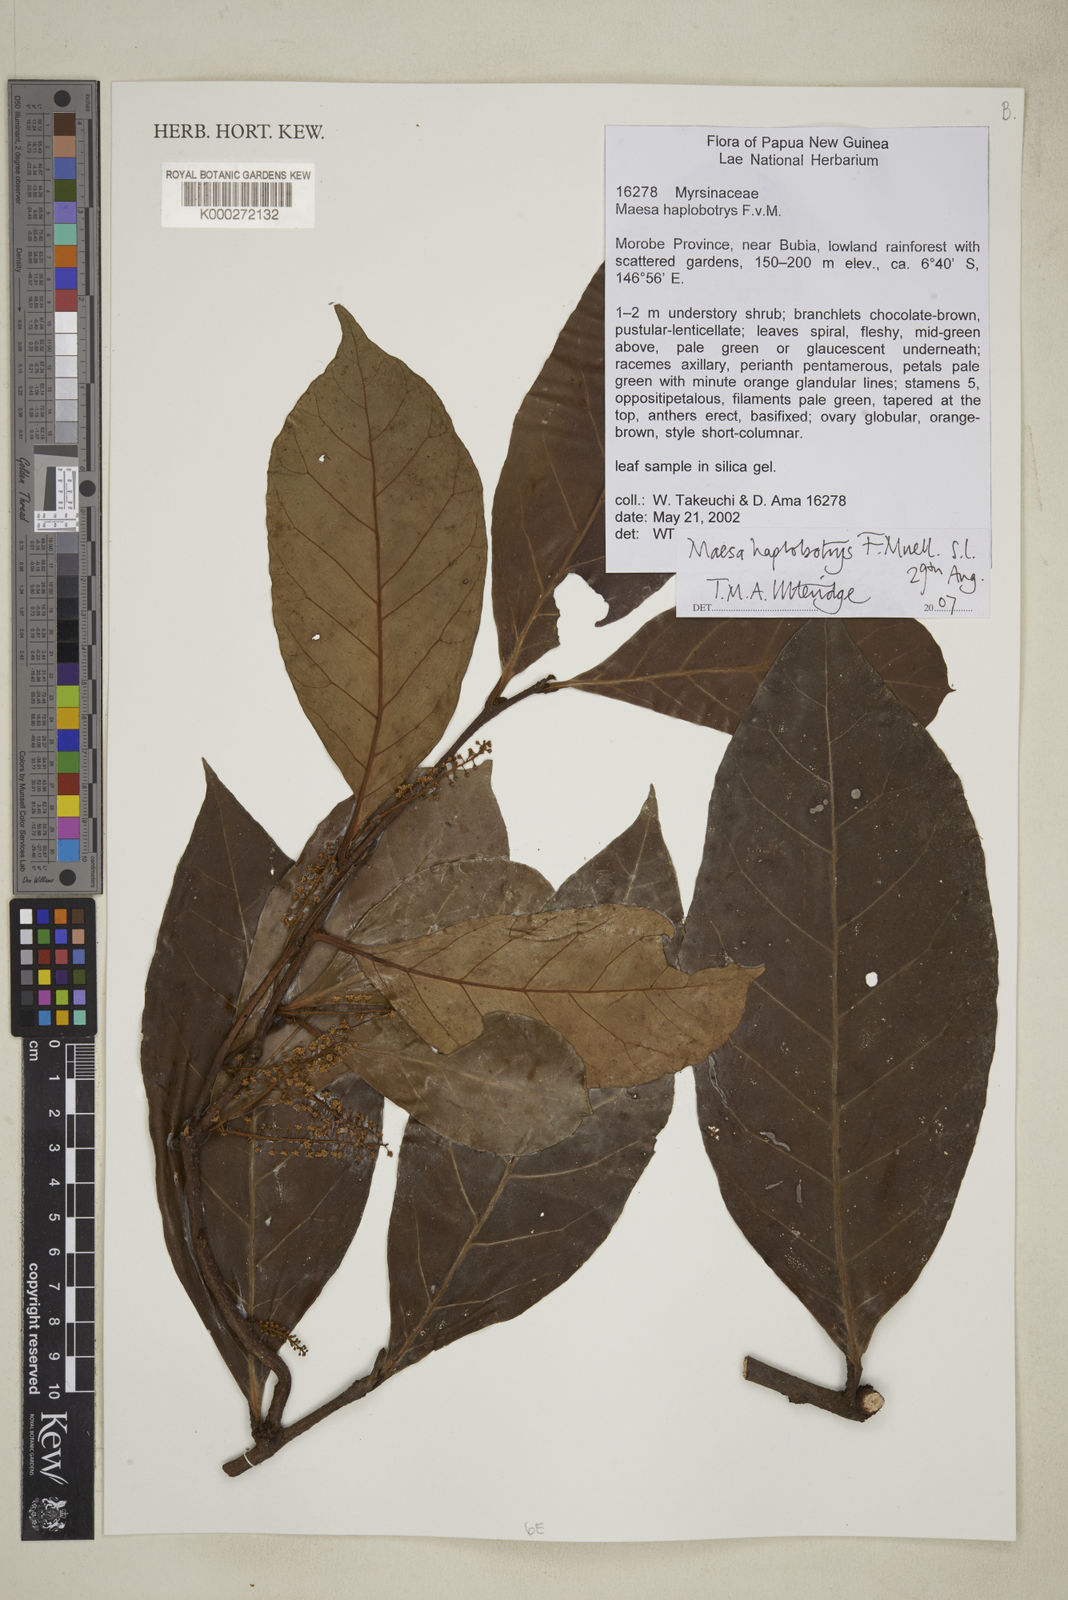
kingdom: Plantae
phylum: Tracheophyta
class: Magnoliopsida
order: Ericales
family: Primulaceae
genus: Maesa
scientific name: Maesa haplobotrys
